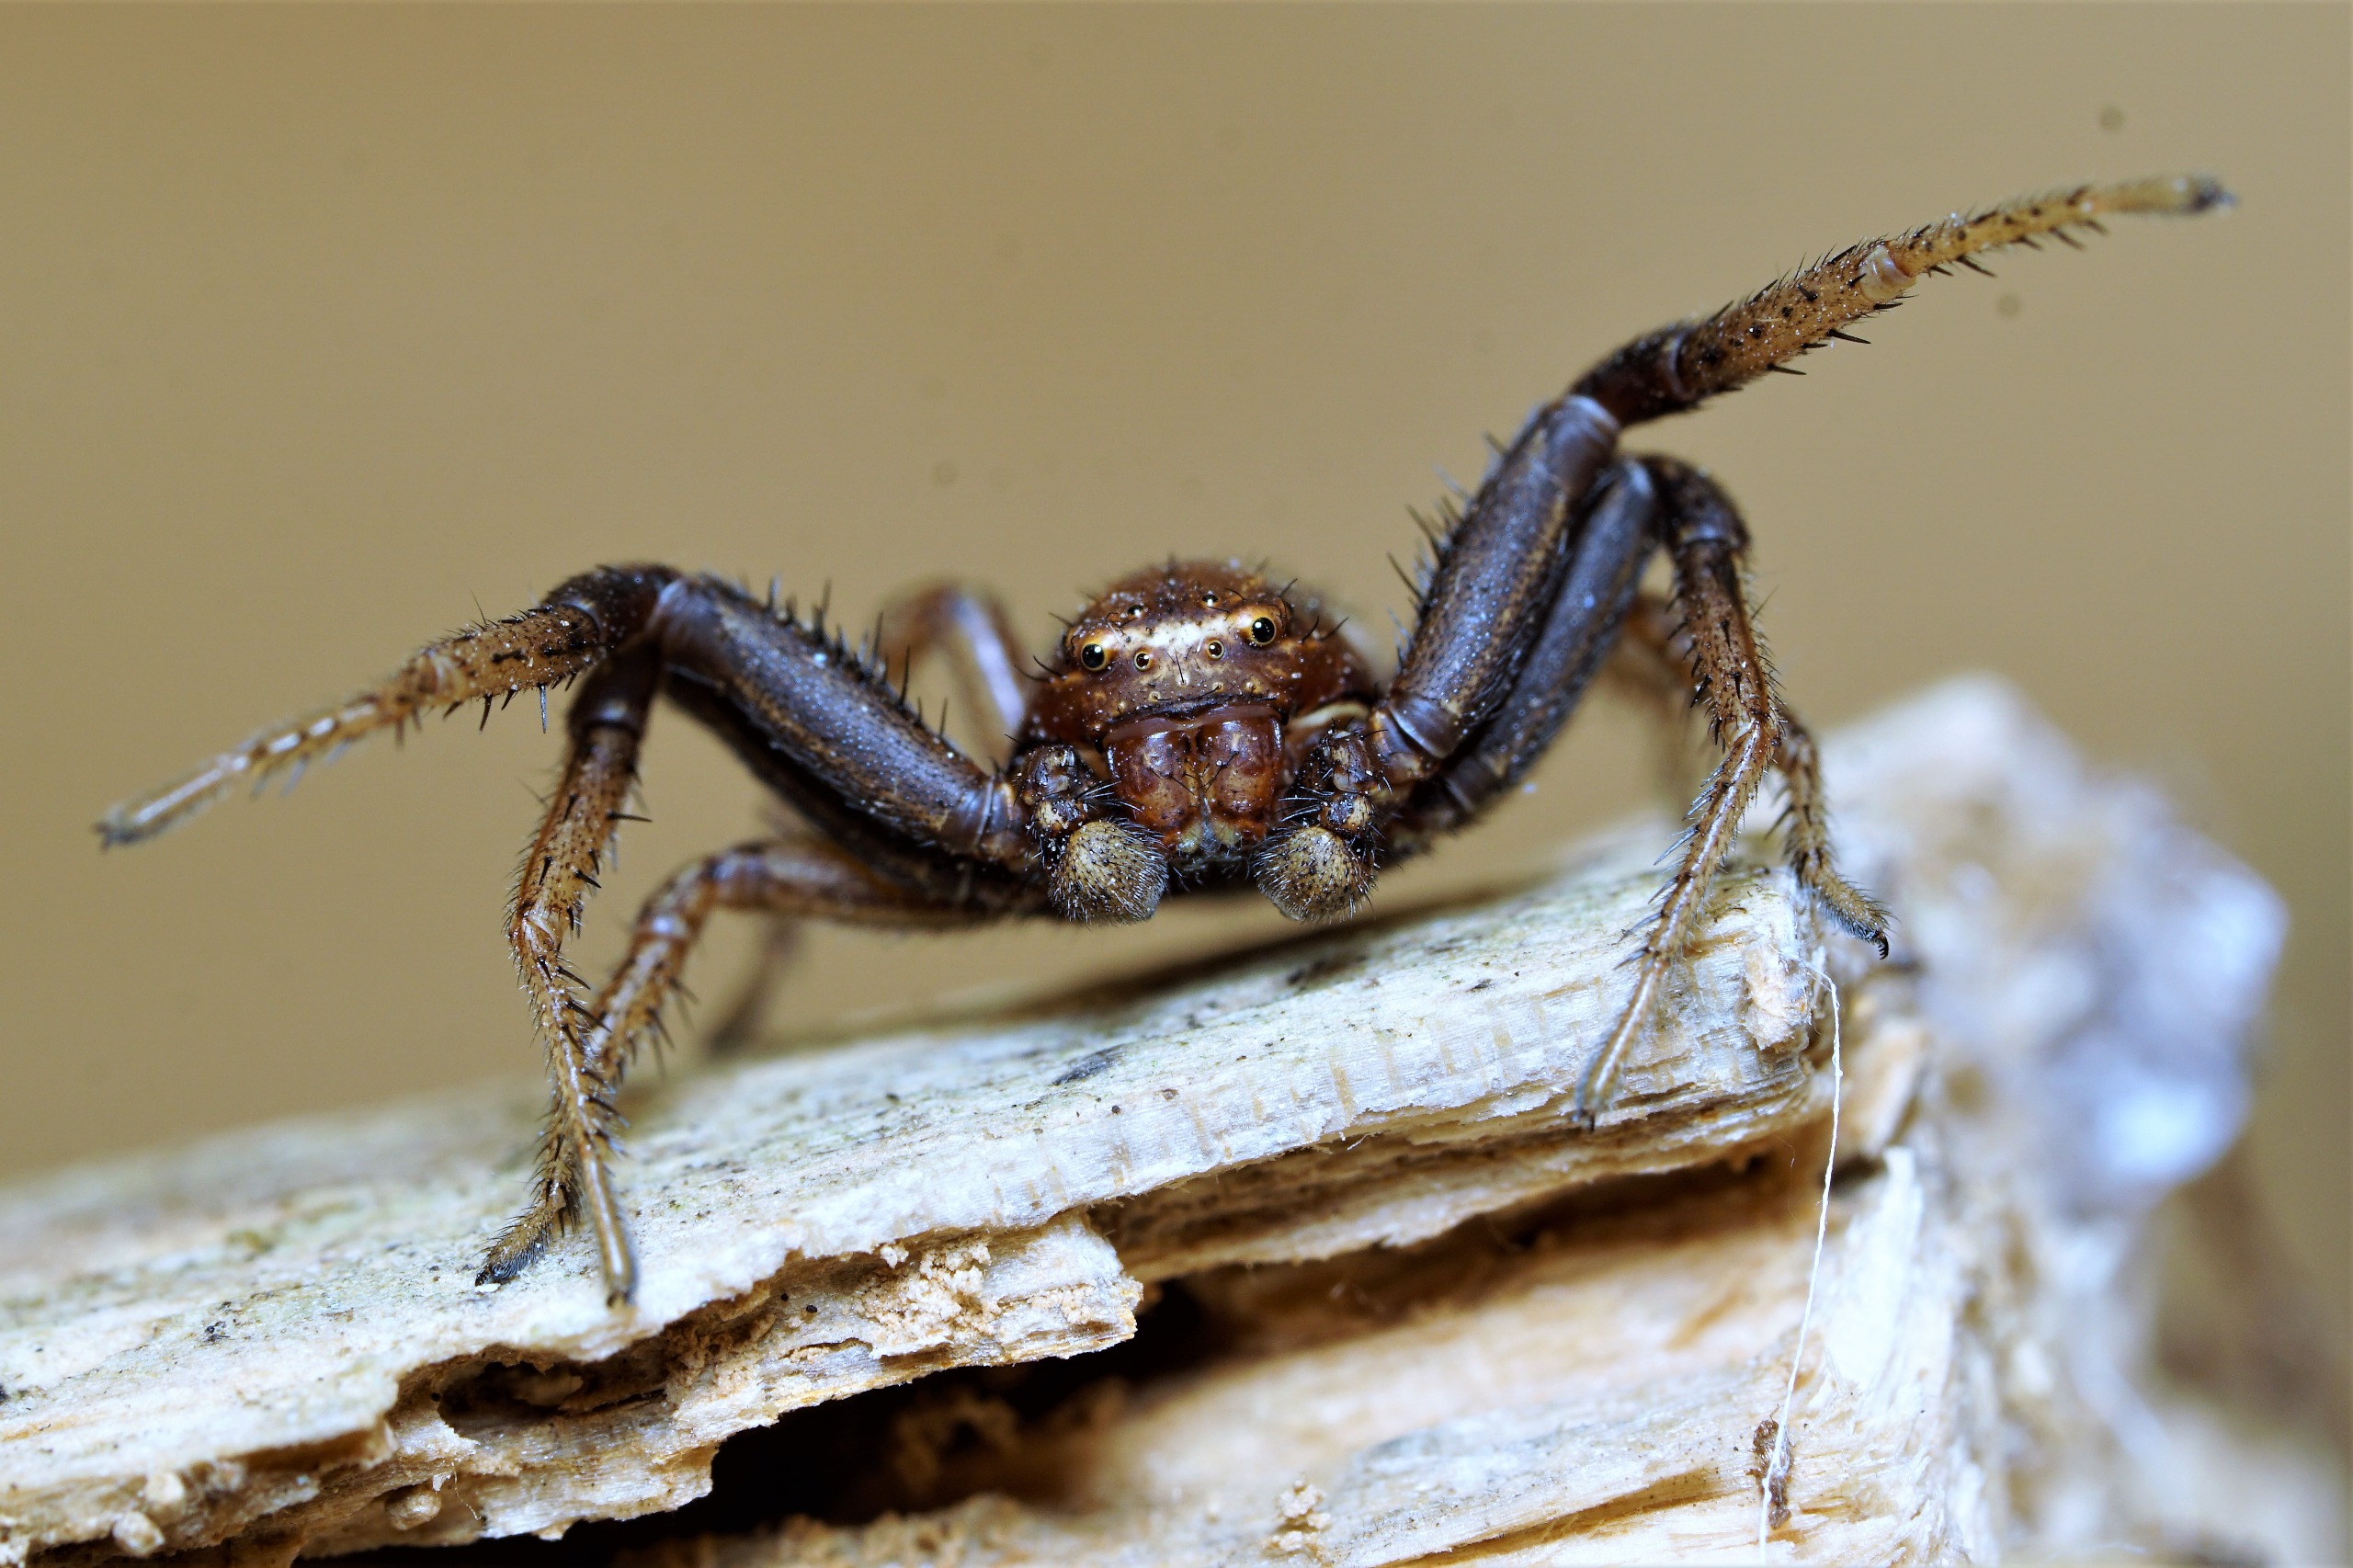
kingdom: Animalia
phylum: Arthropoda
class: Arachnida
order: Araneae
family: Thomisidae
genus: Xysticus
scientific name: Xysticus bifasciatus
